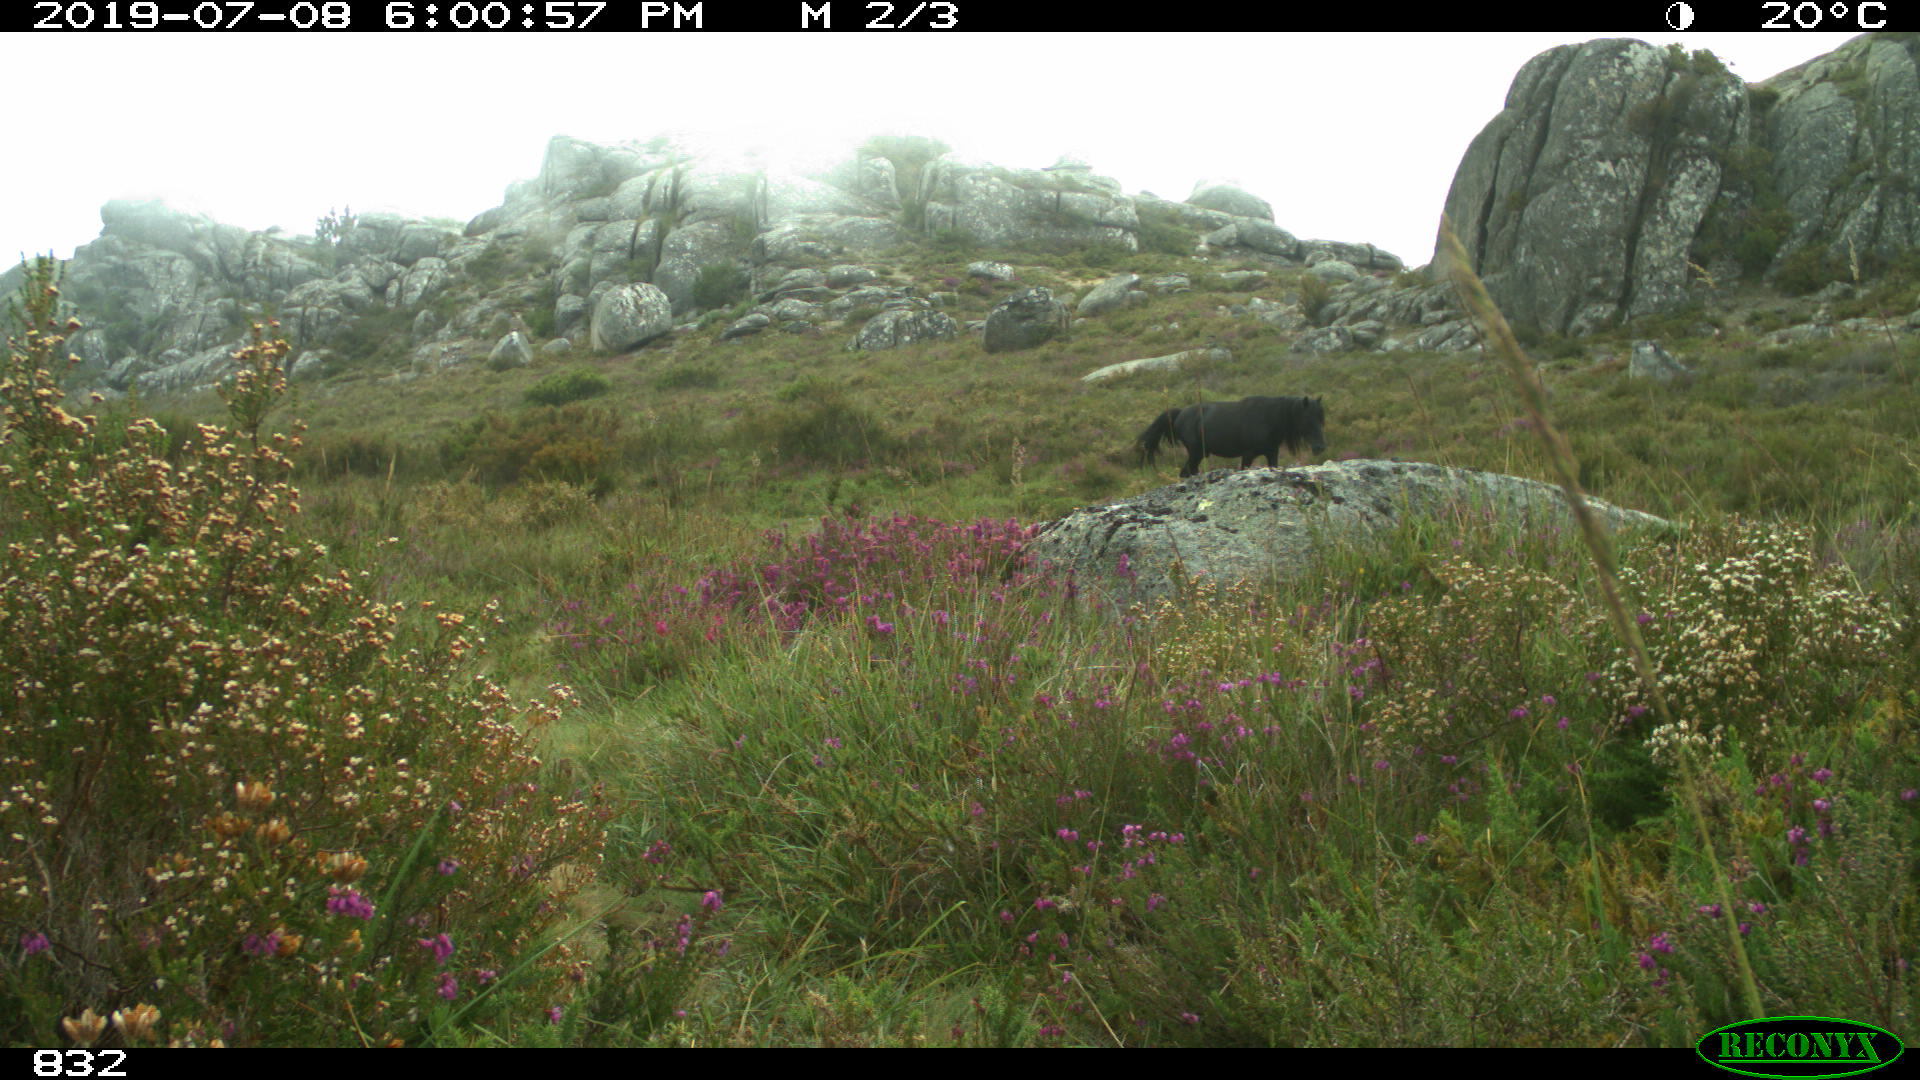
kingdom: Animalia
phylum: Chordata
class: Mammalia
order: Perissodactyla
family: Equidae
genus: Equus
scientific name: Equus caballus
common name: Horse
